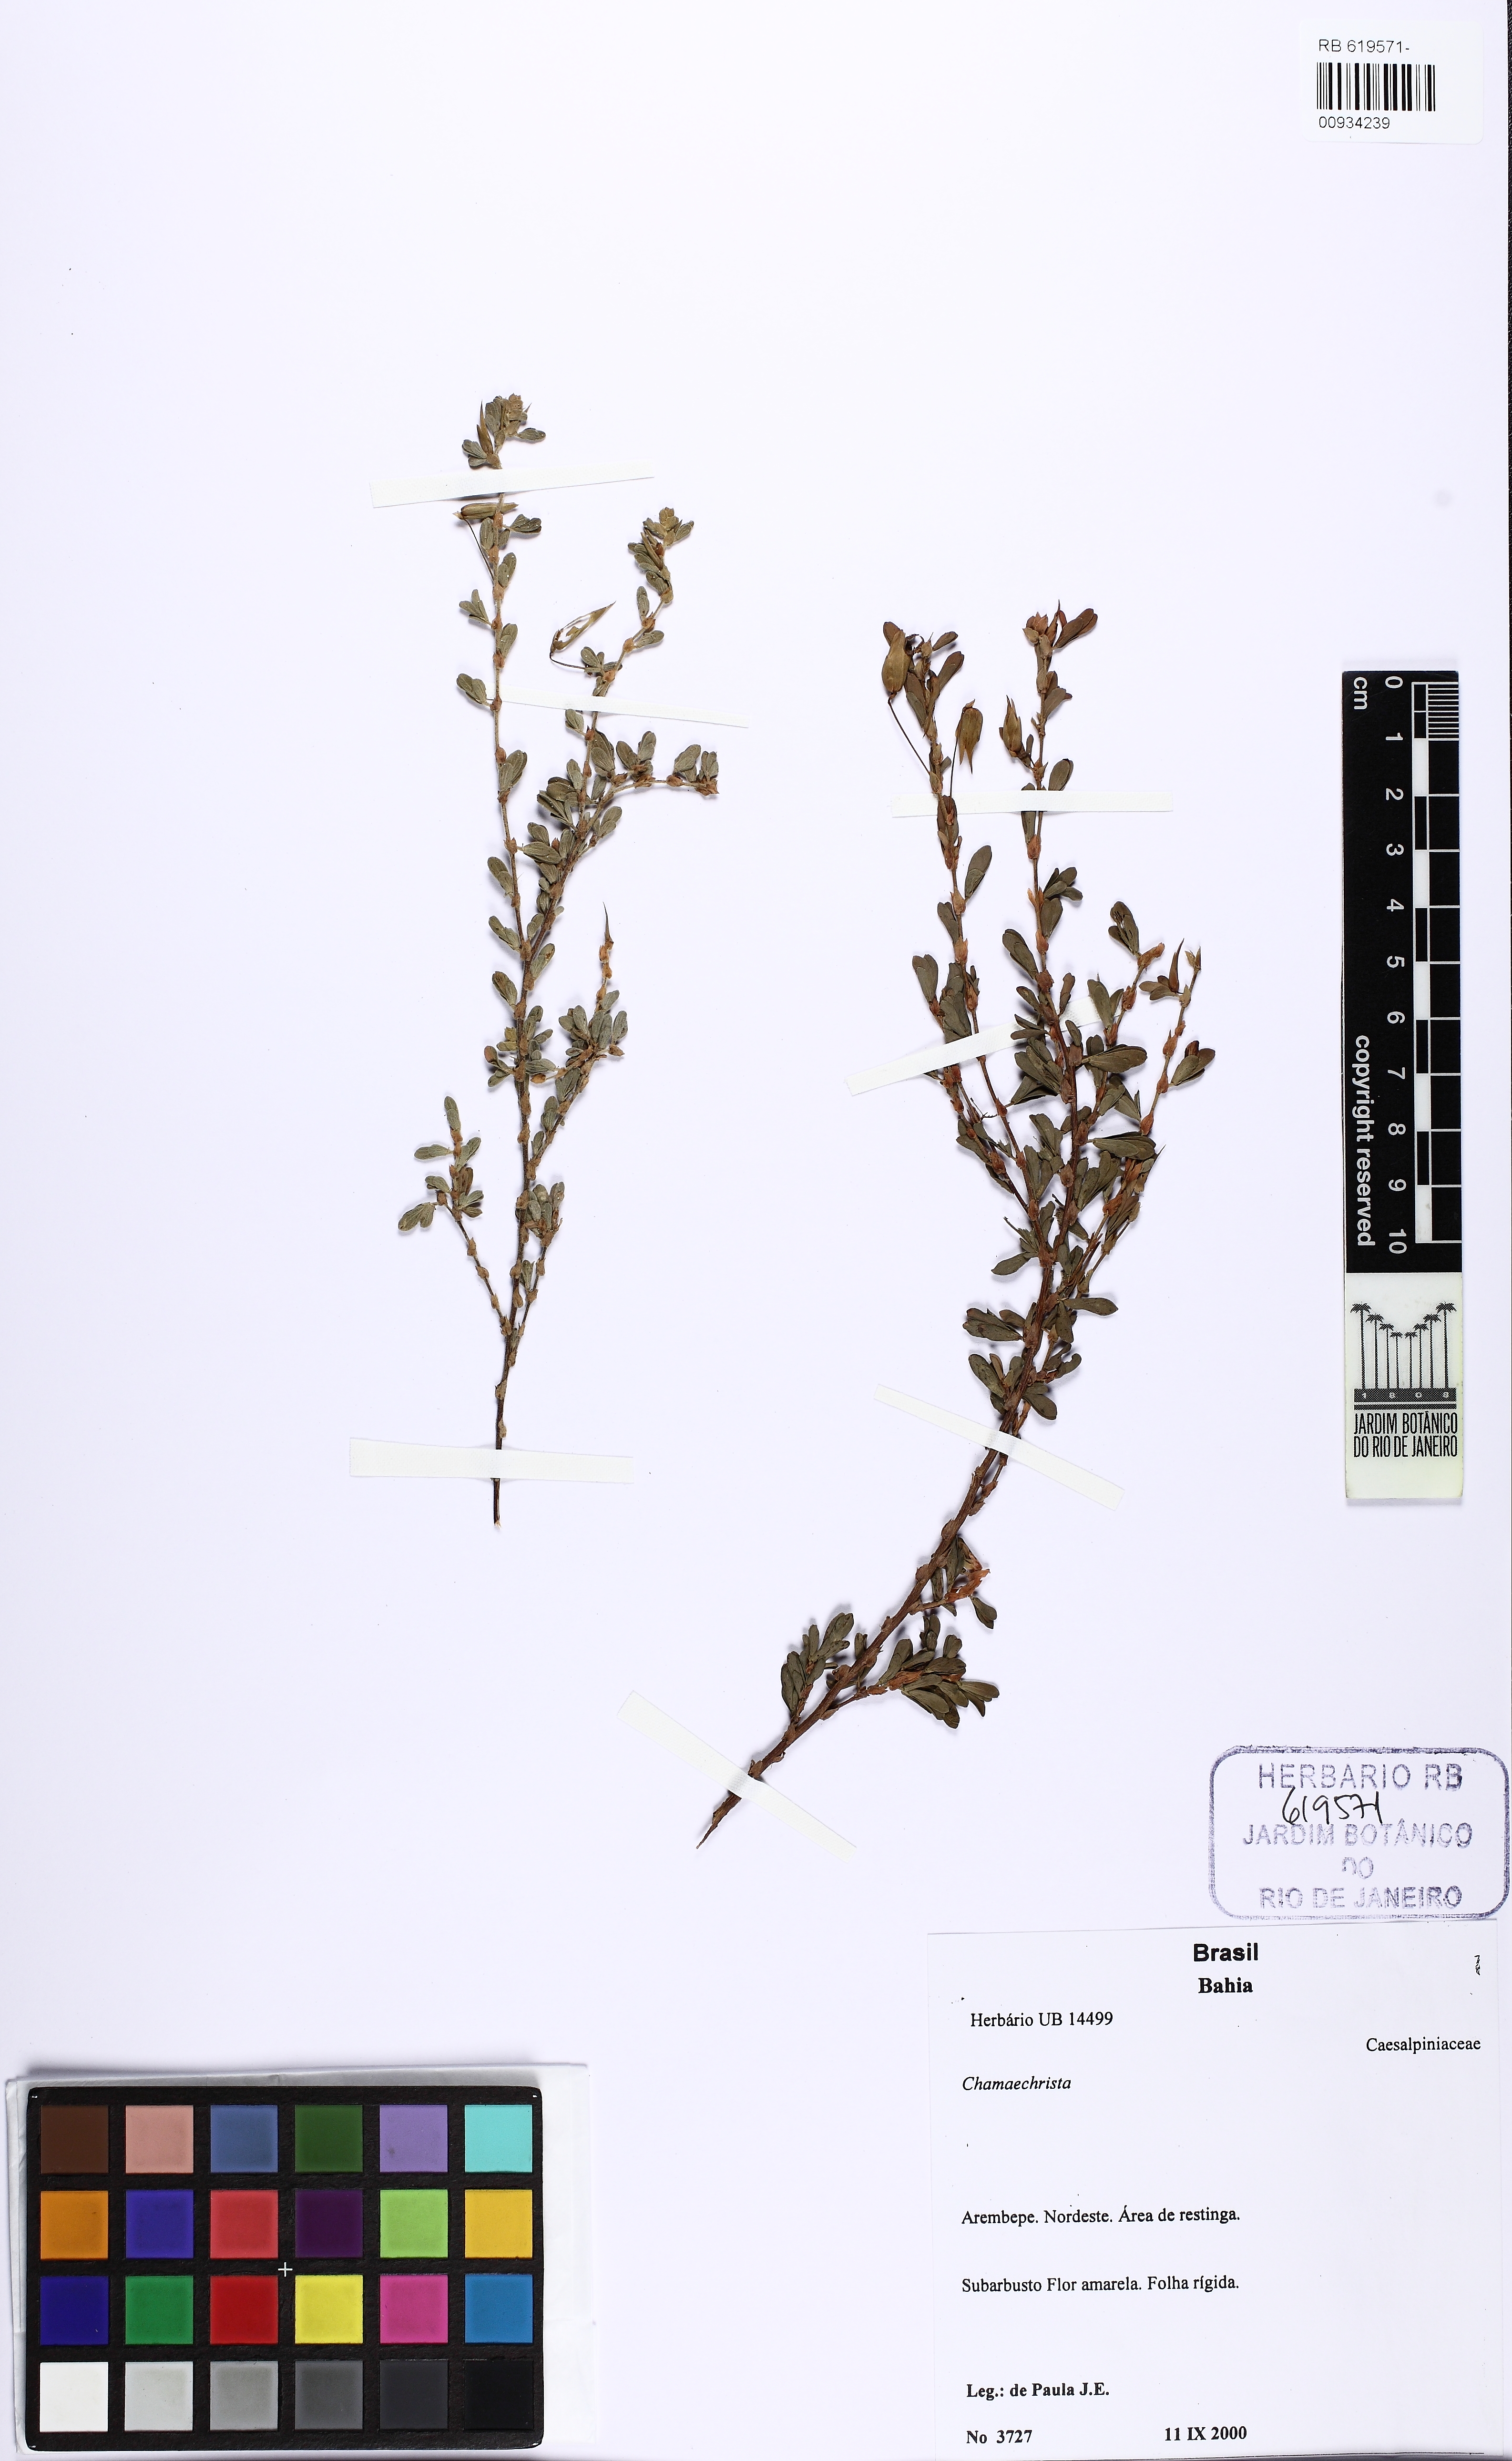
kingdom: Plantae
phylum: Tracheophyta
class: Magnoliopsida
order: Fabales
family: Fabaceae
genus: Chamaecrista
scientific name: Chamaecrista
